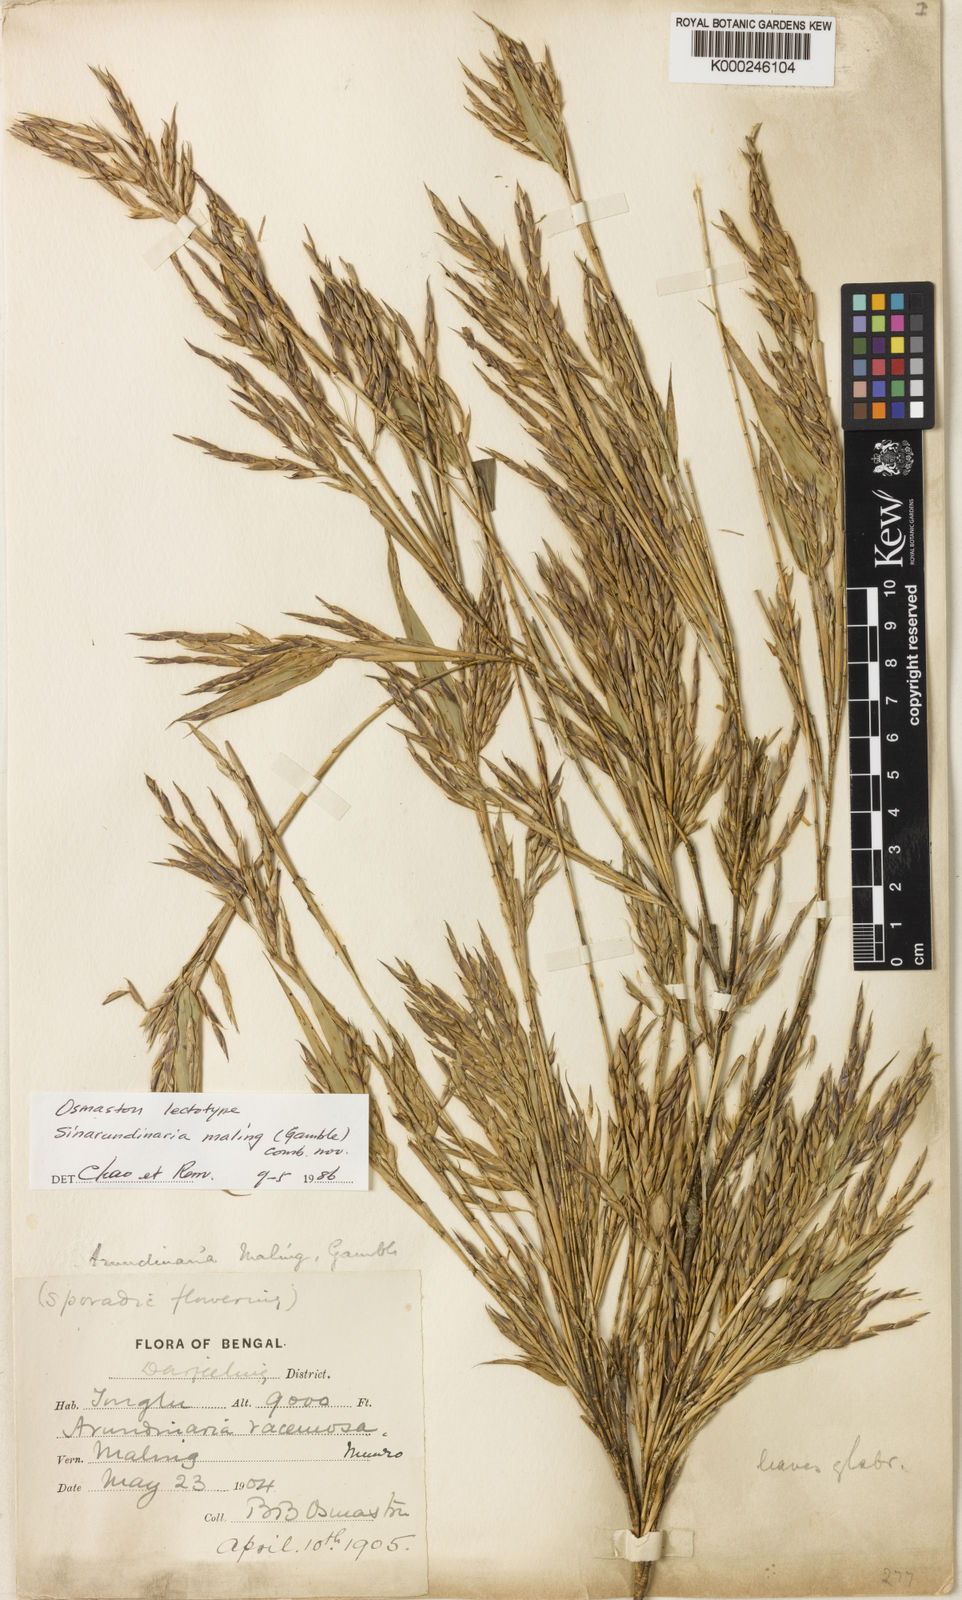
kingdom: Plantae
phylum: Tracheophyta
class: Liliopsida
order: Poales
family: Poaceae
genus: Yushania
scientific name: Yushania maling
